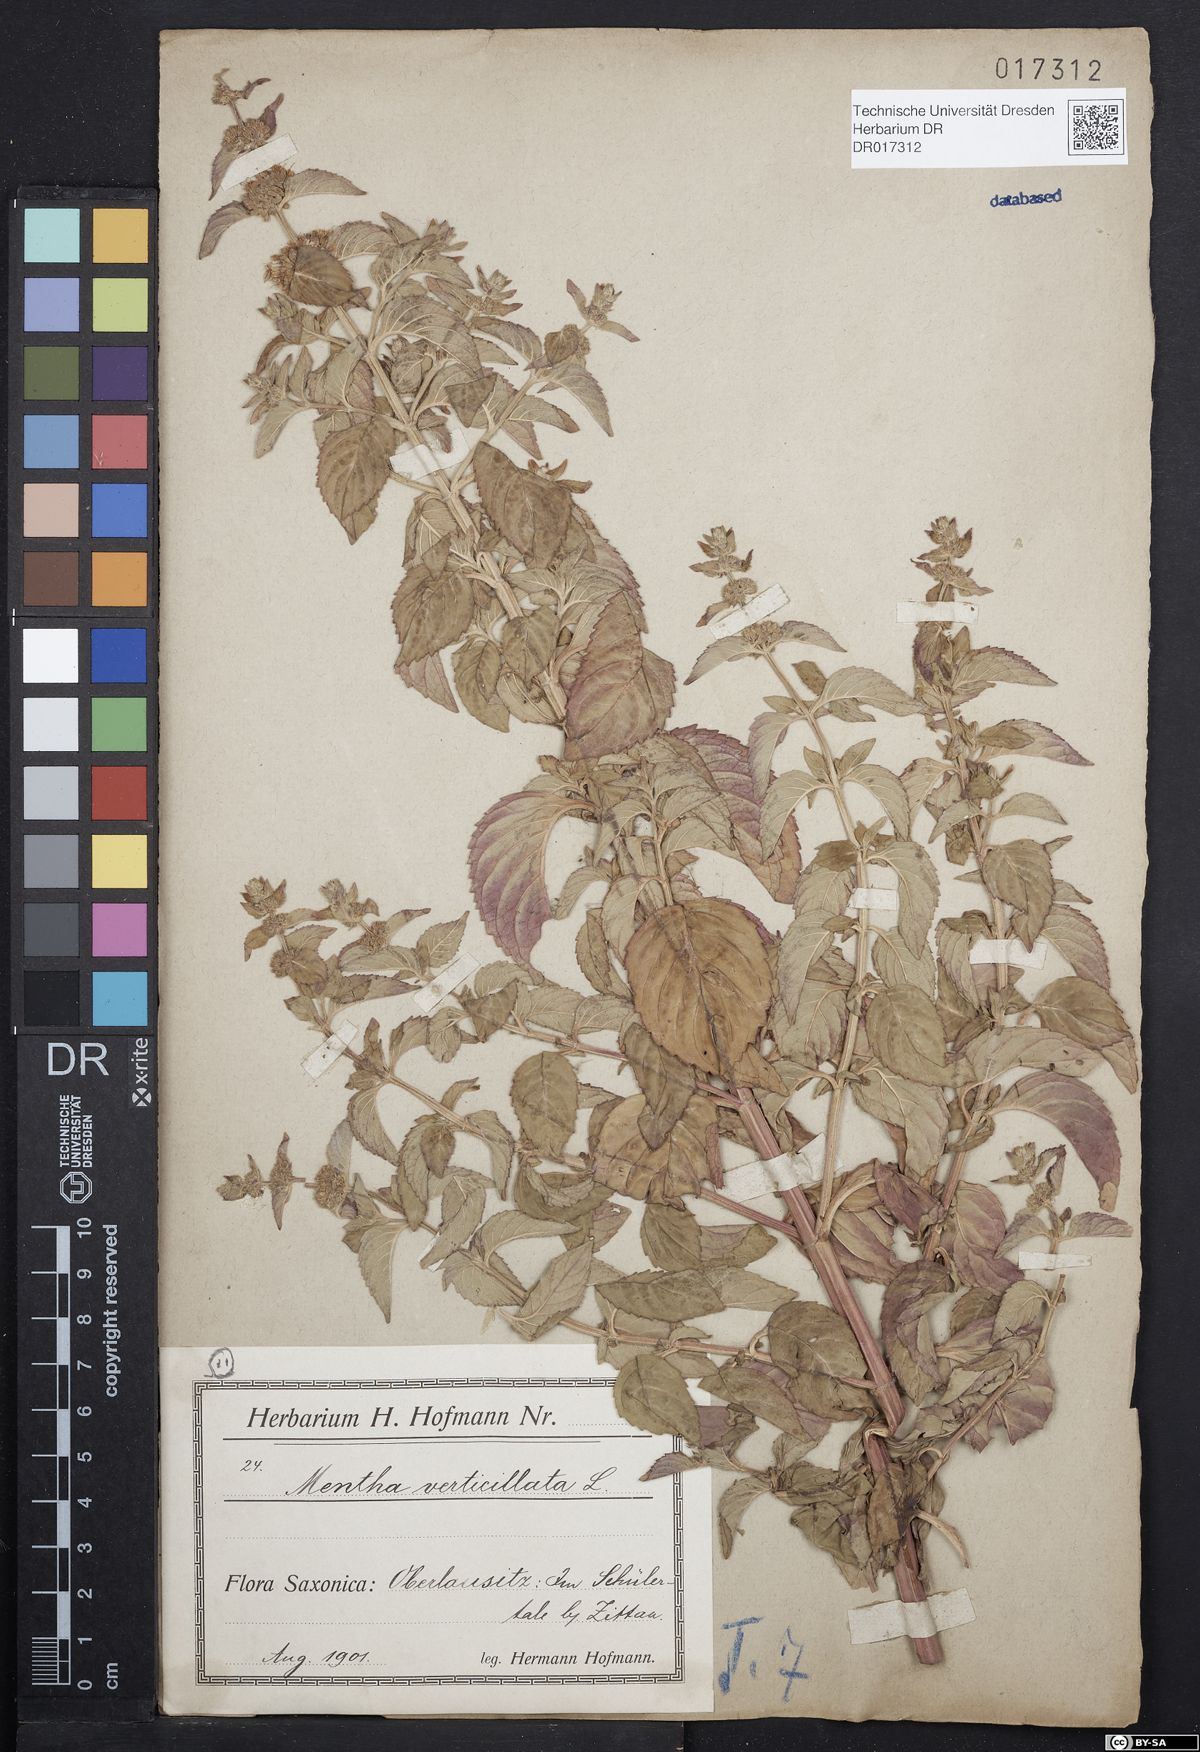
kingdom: Plantae
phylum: Tracheophyta
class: Magnoliopsida
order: Lamiales
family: Lamiaceae
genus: Mentha
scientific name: Mentha verticillata
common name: Mint
